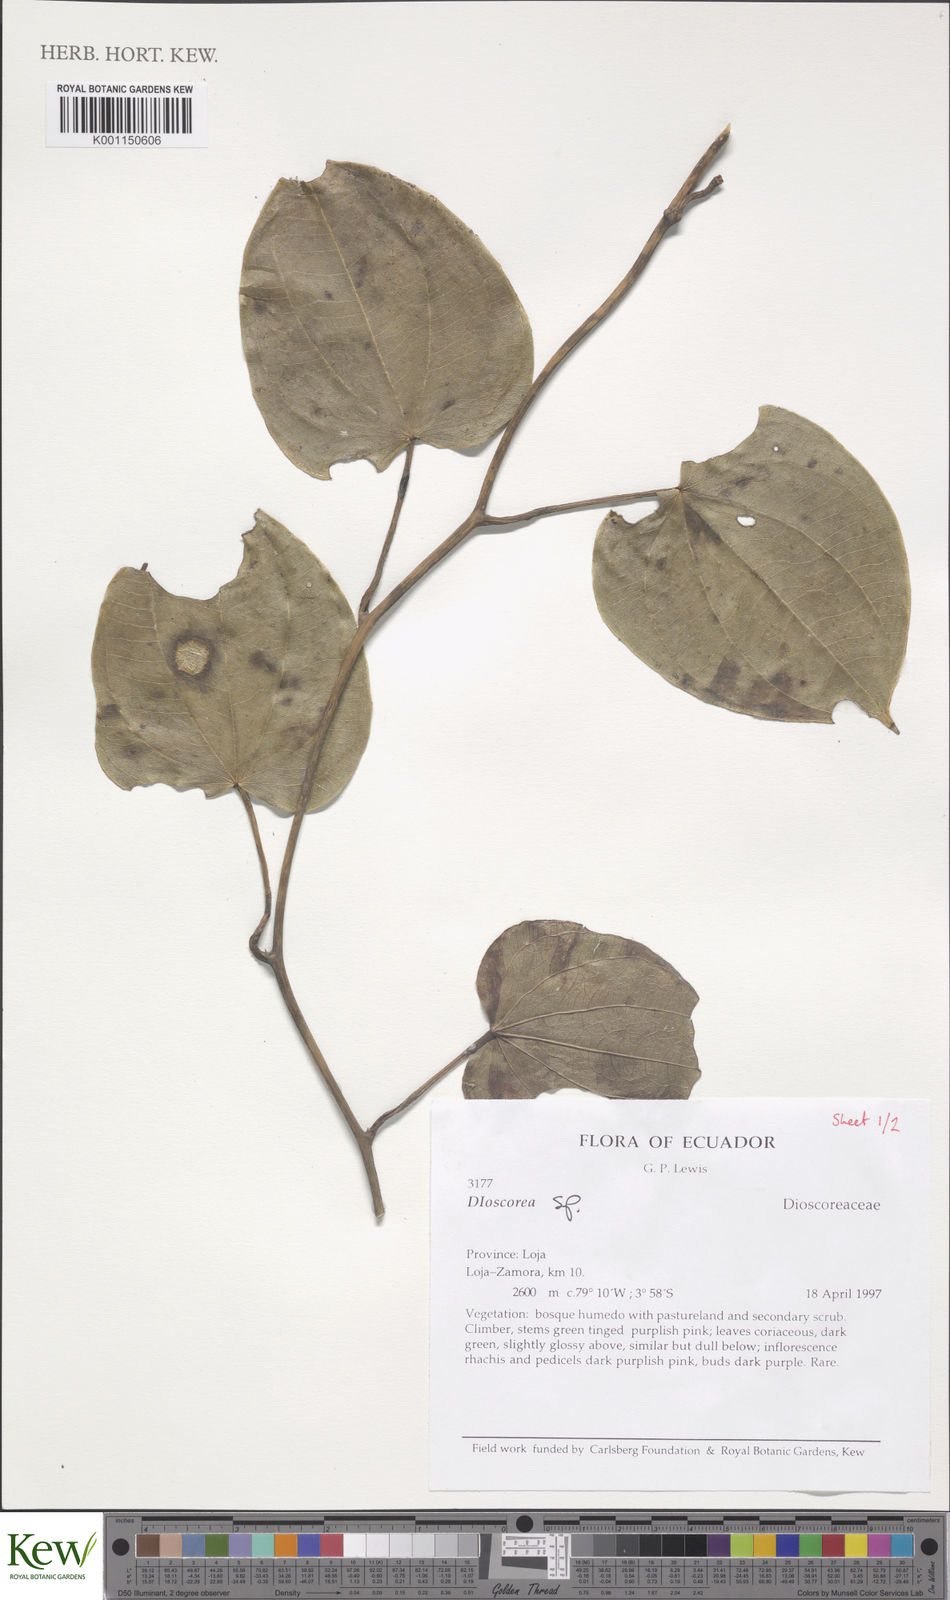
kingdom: Plantae
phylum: Tracheophyta
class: Liliopsida
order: Dioscoreales
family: Dioscoreaceae
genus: Dioscorea
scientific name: Dioscorea
